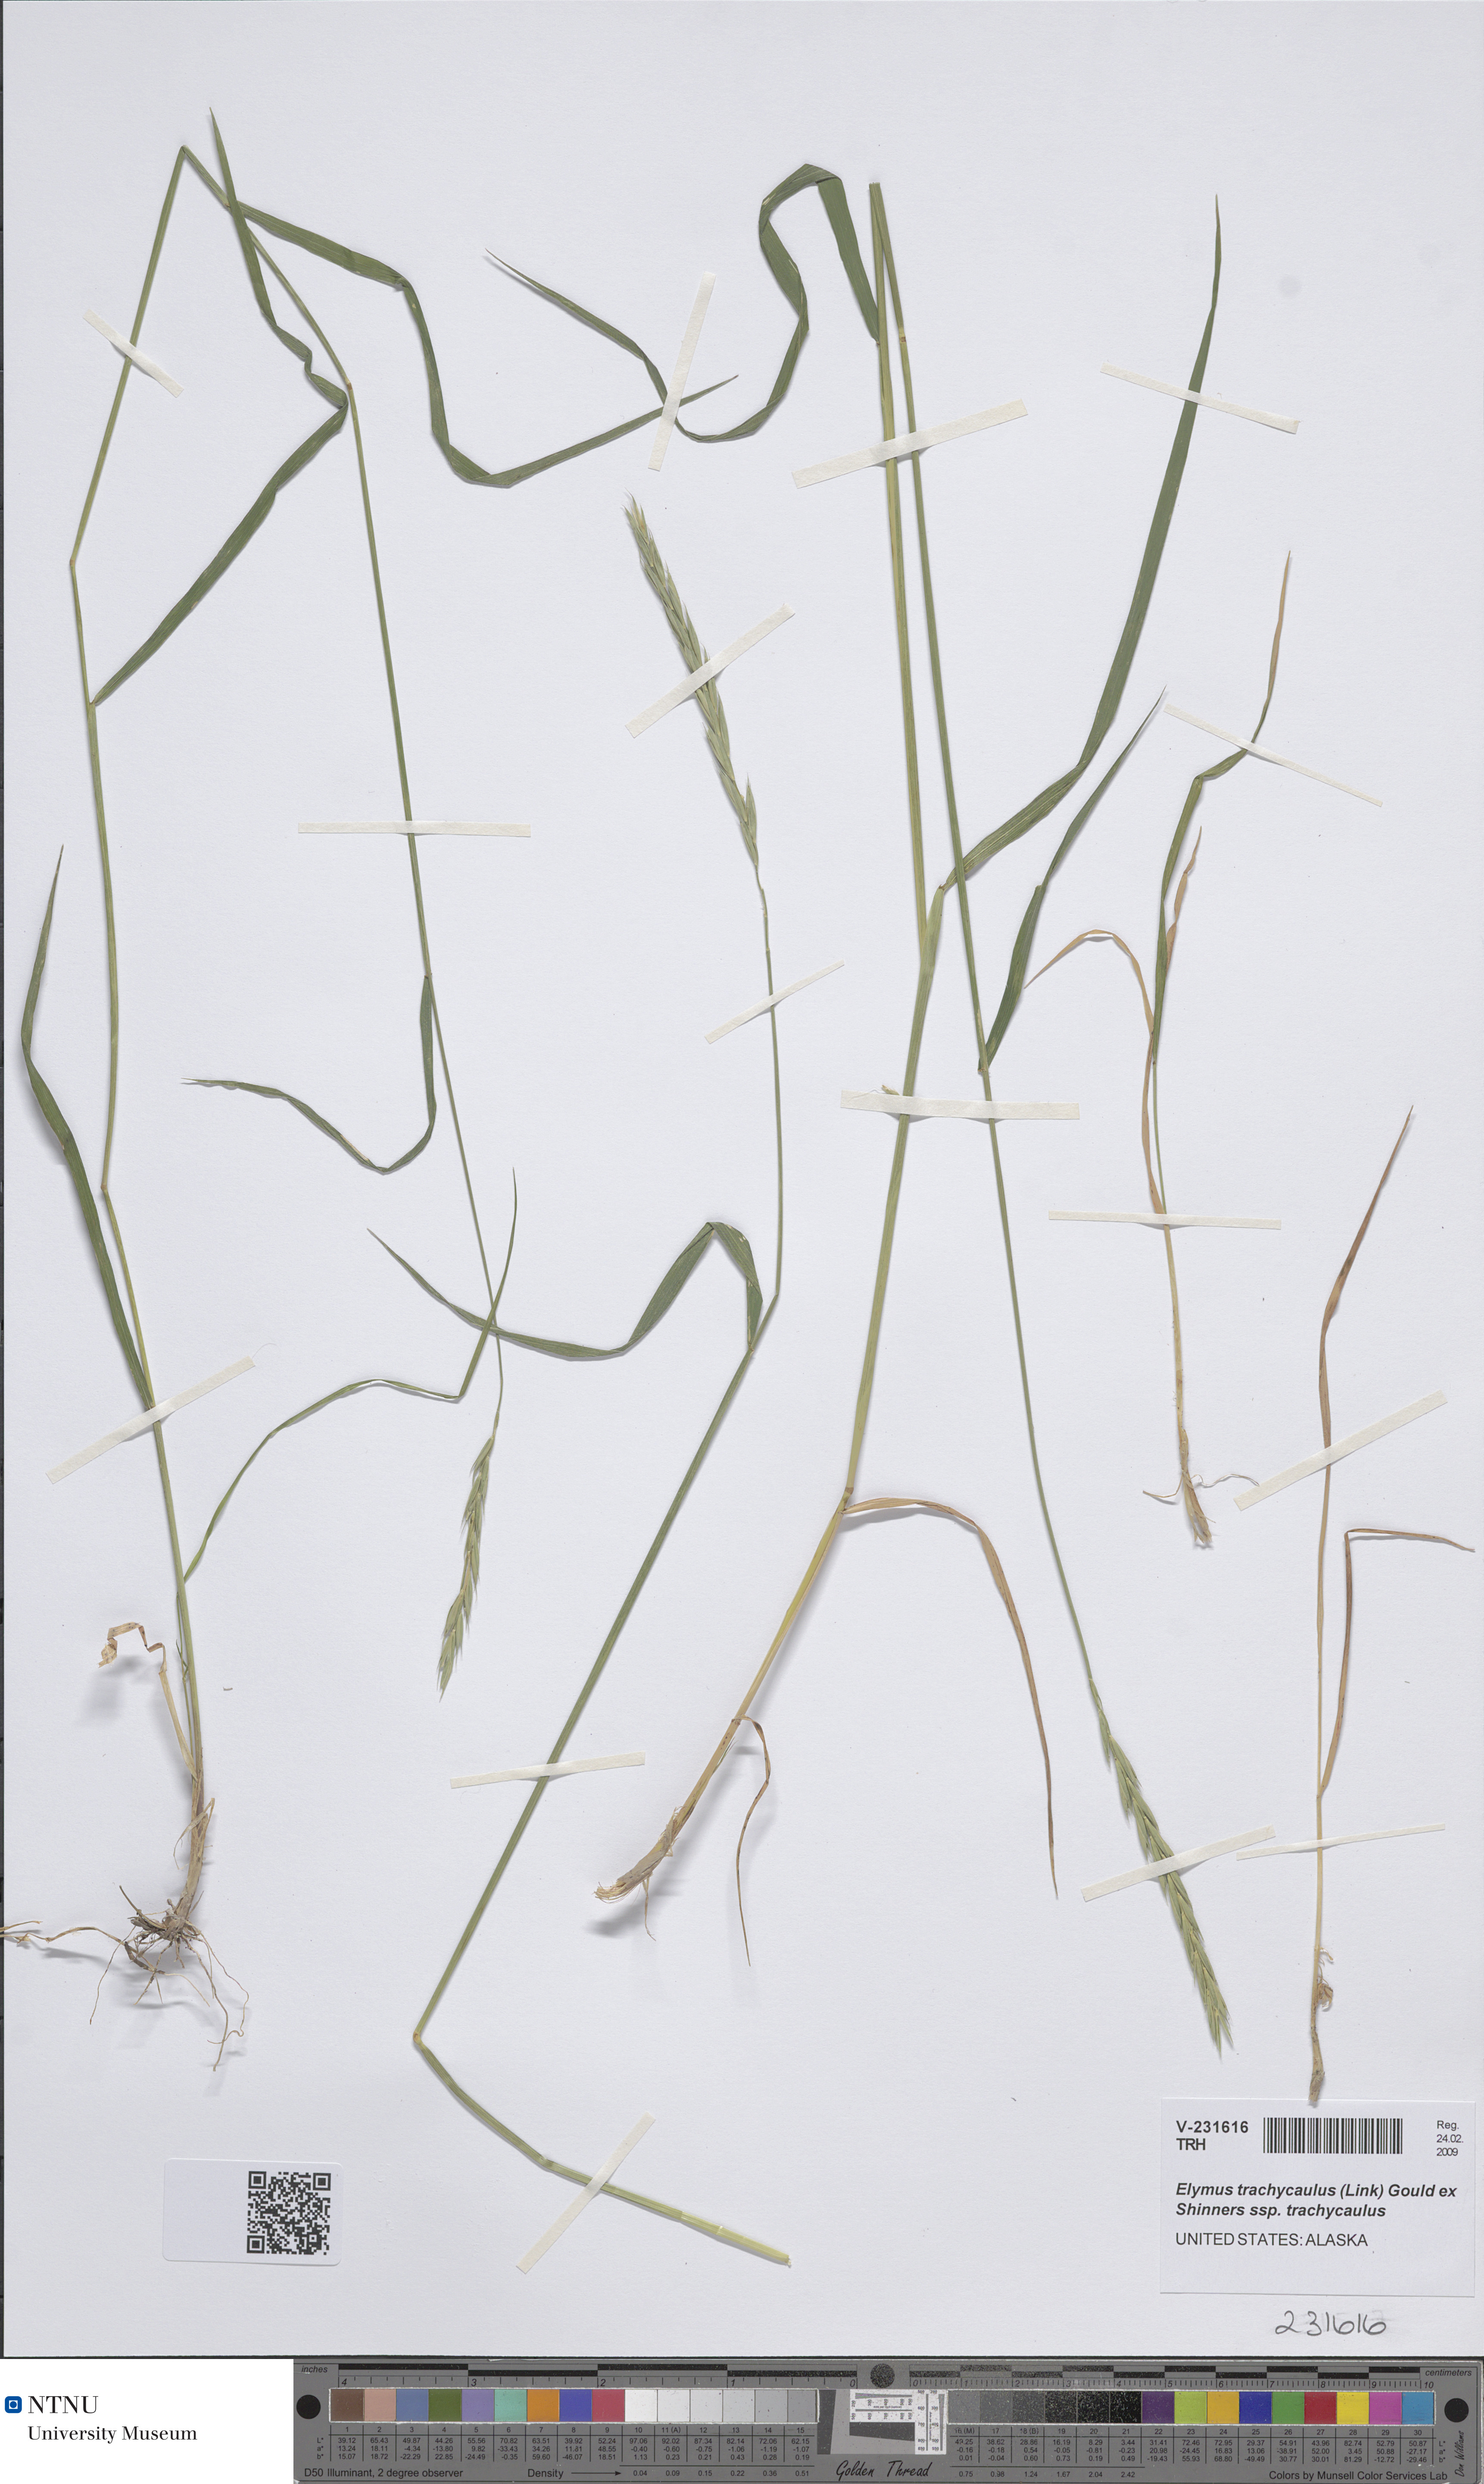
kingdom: Plantae
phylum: Tracheophyta
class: Liliopsida
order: Poales
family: Poaceae
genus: Elymus
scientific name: Elymus violaceus
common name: Arctic wheatgrass
